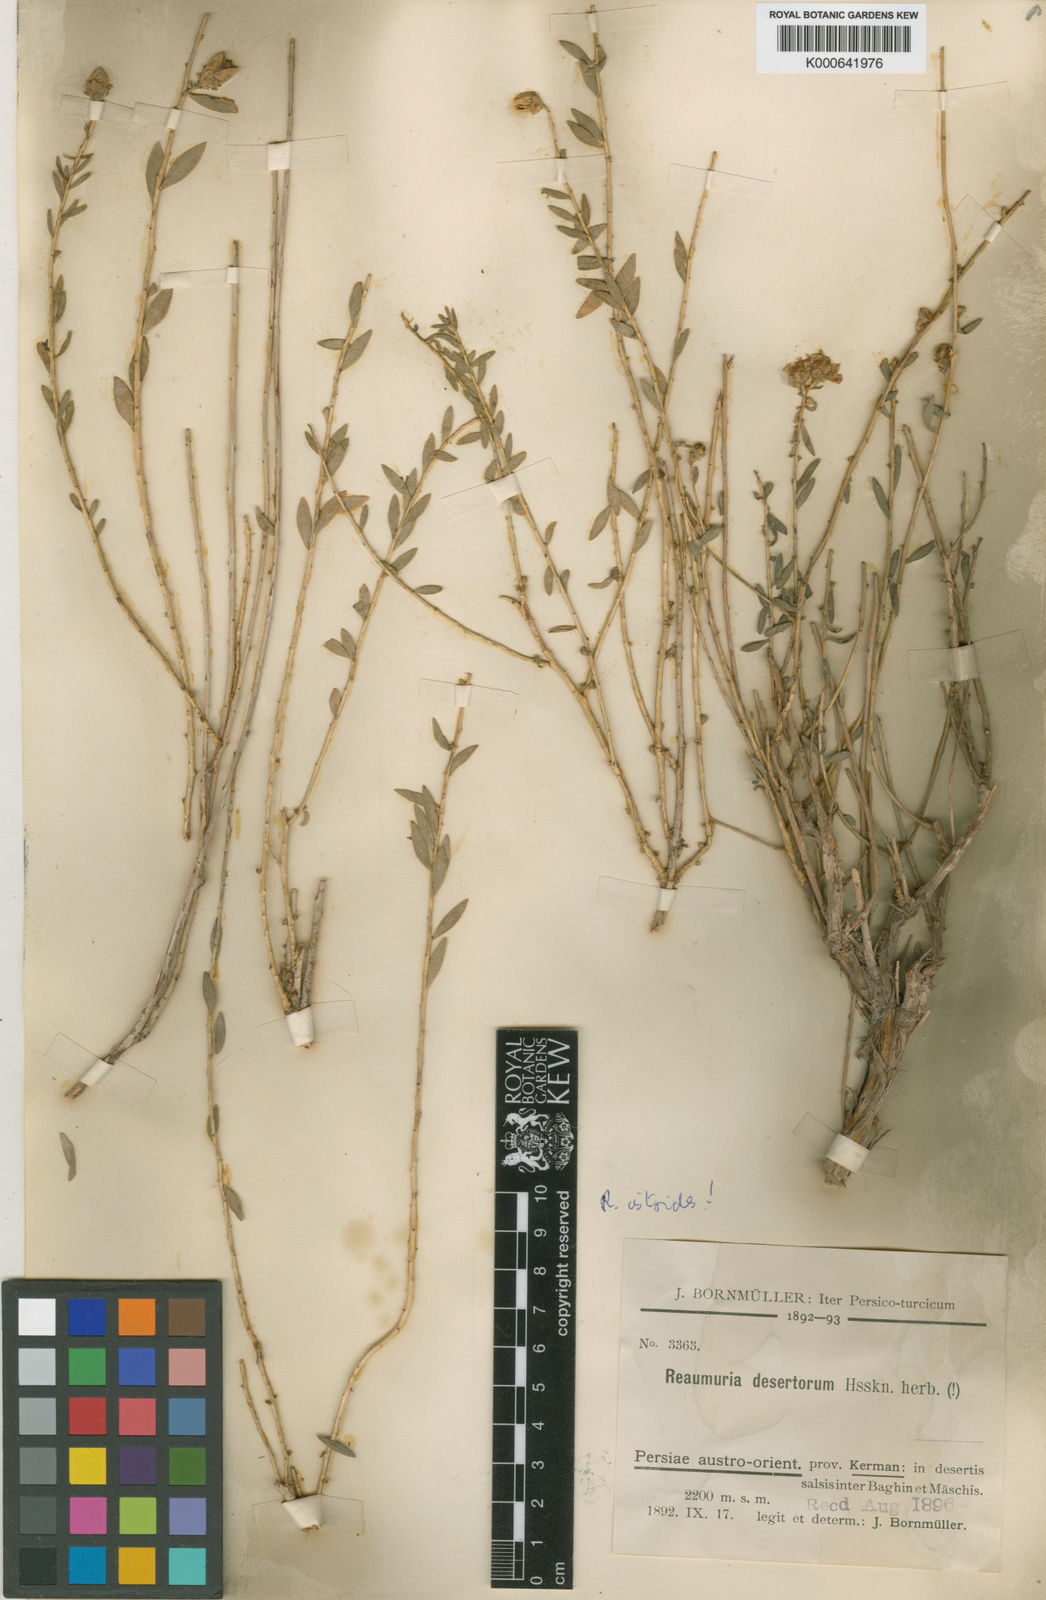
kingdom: Plantae
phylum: Tracheophyta
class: Magnoliopsida
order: Caryophyllales
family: Tamaricaceae
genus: Reaumuria
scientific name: Reaumuria alternifolia
